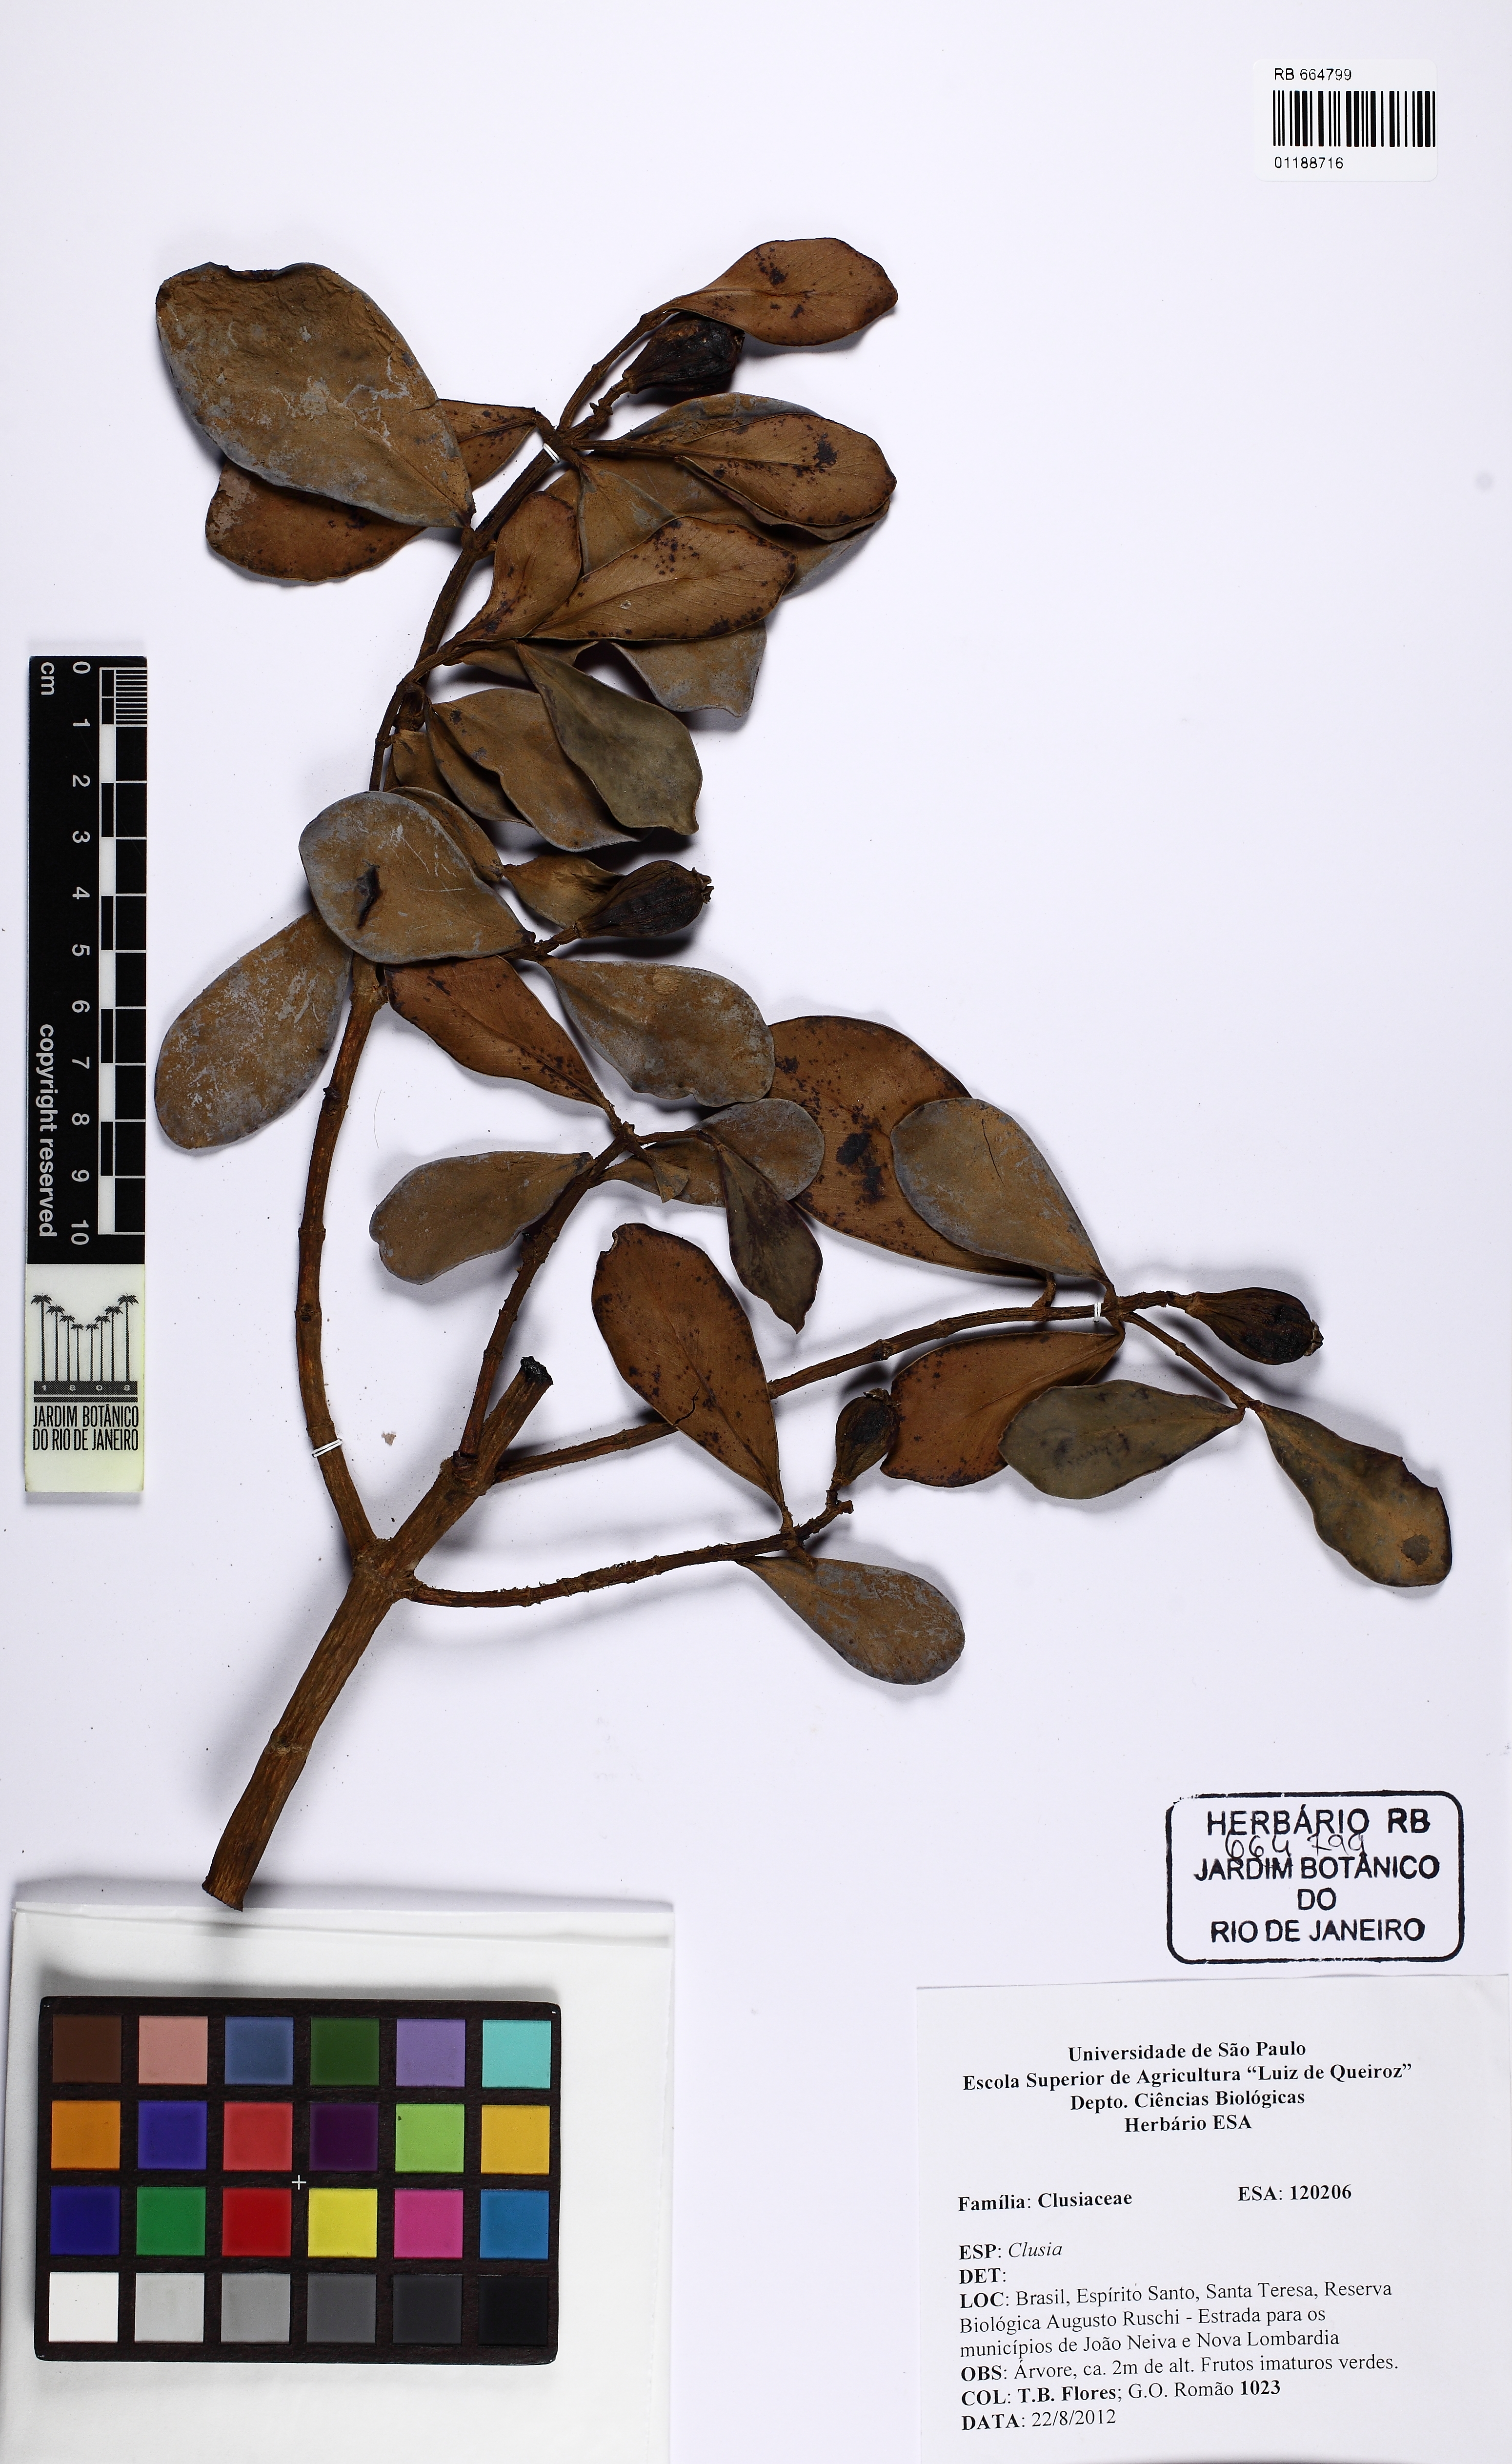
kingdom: Plantae
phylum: Tracheophyta
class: Magnoliopsida
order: Malpighiales
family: Clusiaceae
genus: Clusia
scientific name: Clusia organensis
